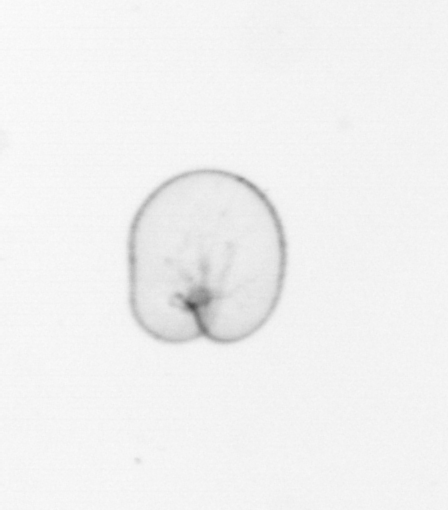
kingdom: Chromista
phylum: Myzozoa
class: Dinophyceae
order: Noctilucales
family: Noctilucaceae
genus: Noctiluca
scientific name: Noctiluca scintillans
